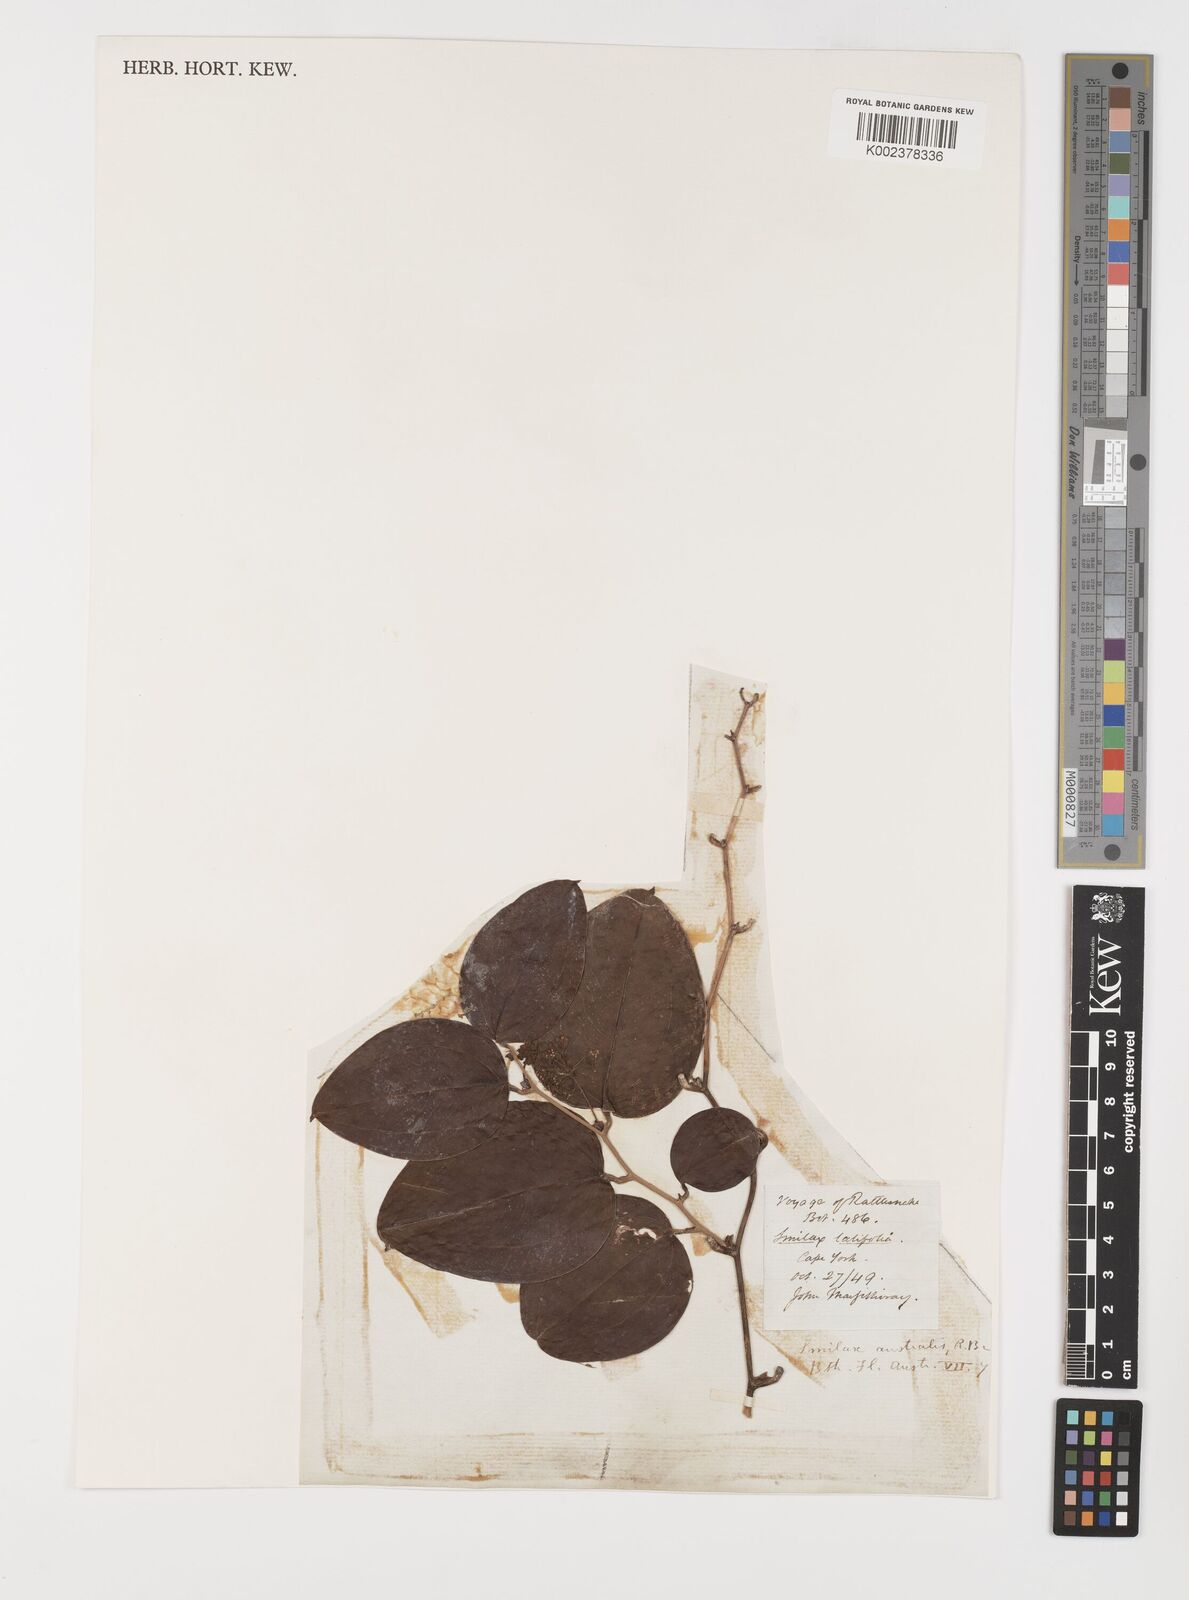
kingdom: Plantae
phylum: Tracheophyta
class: Liliopsida
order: Liliales
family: Smilacaceae
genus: Smilax
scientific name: Smilax australis
